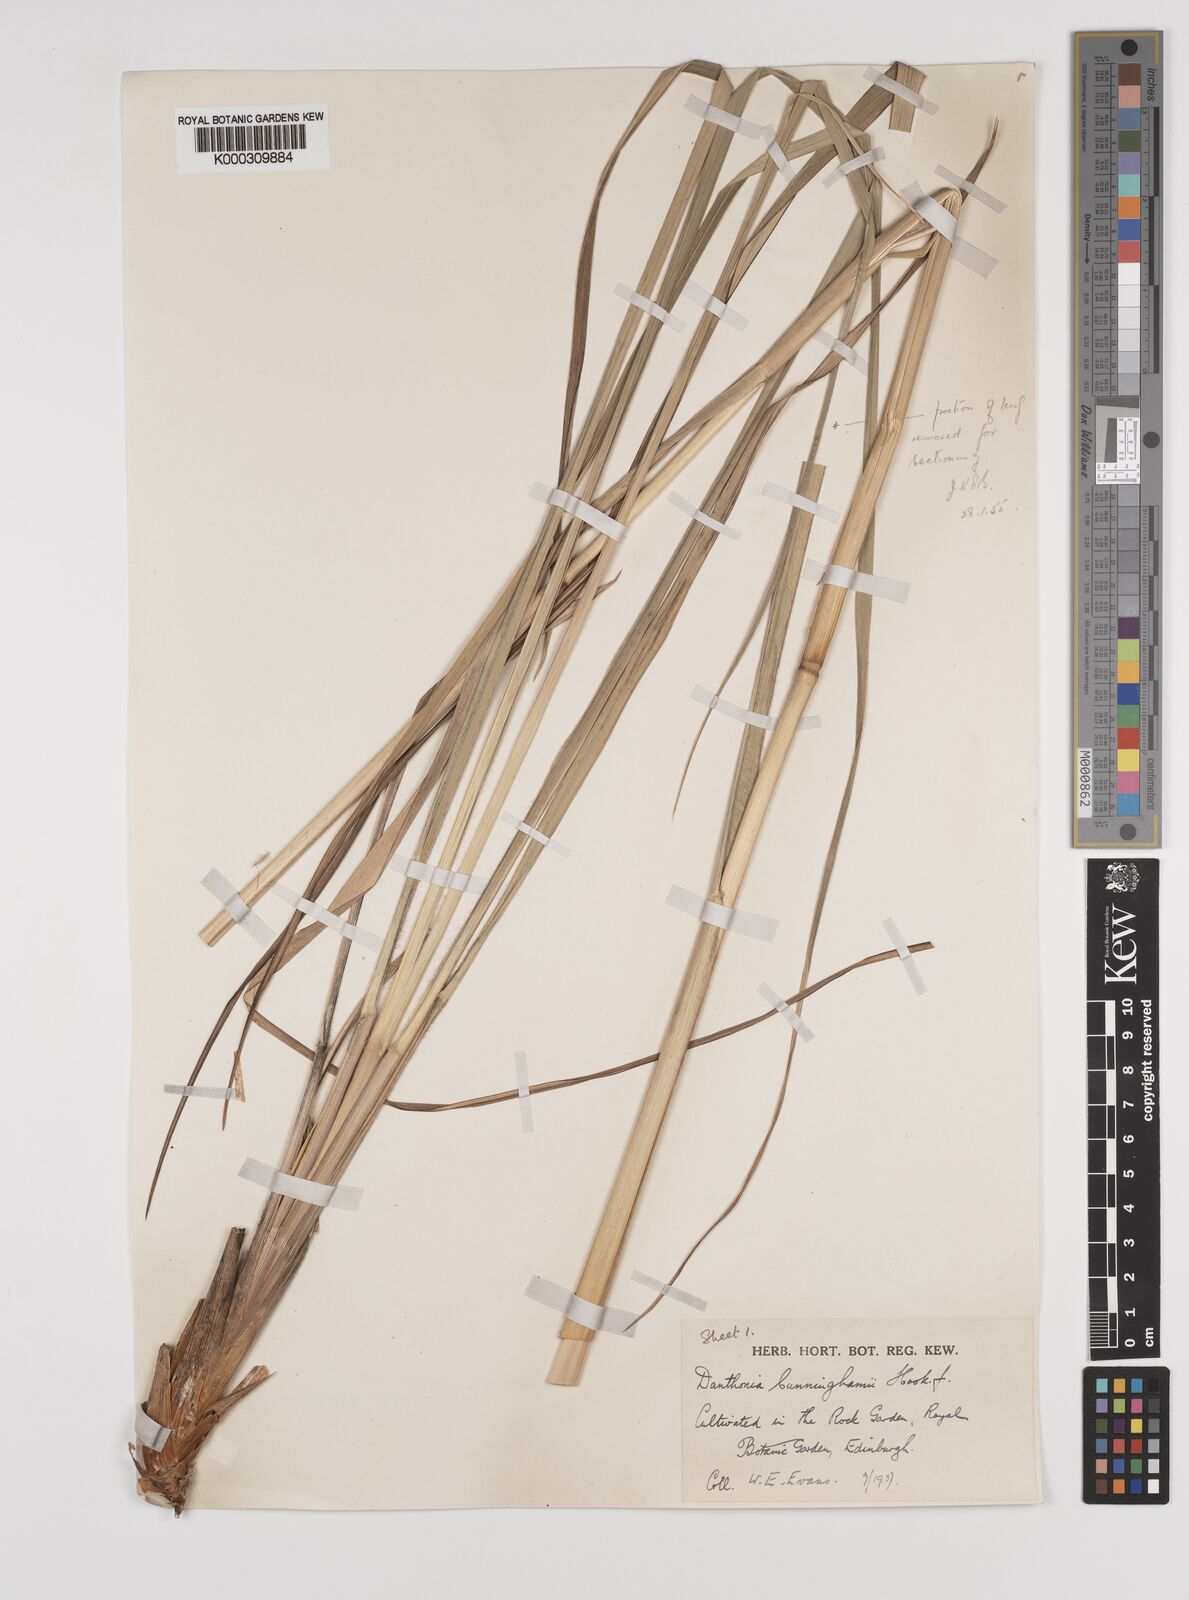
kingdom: Plantae
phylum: Tracheophyta
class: Liliopsida
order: Poales
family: Poaceae
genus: Chionochloa
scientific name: Chionochloa conspicua
